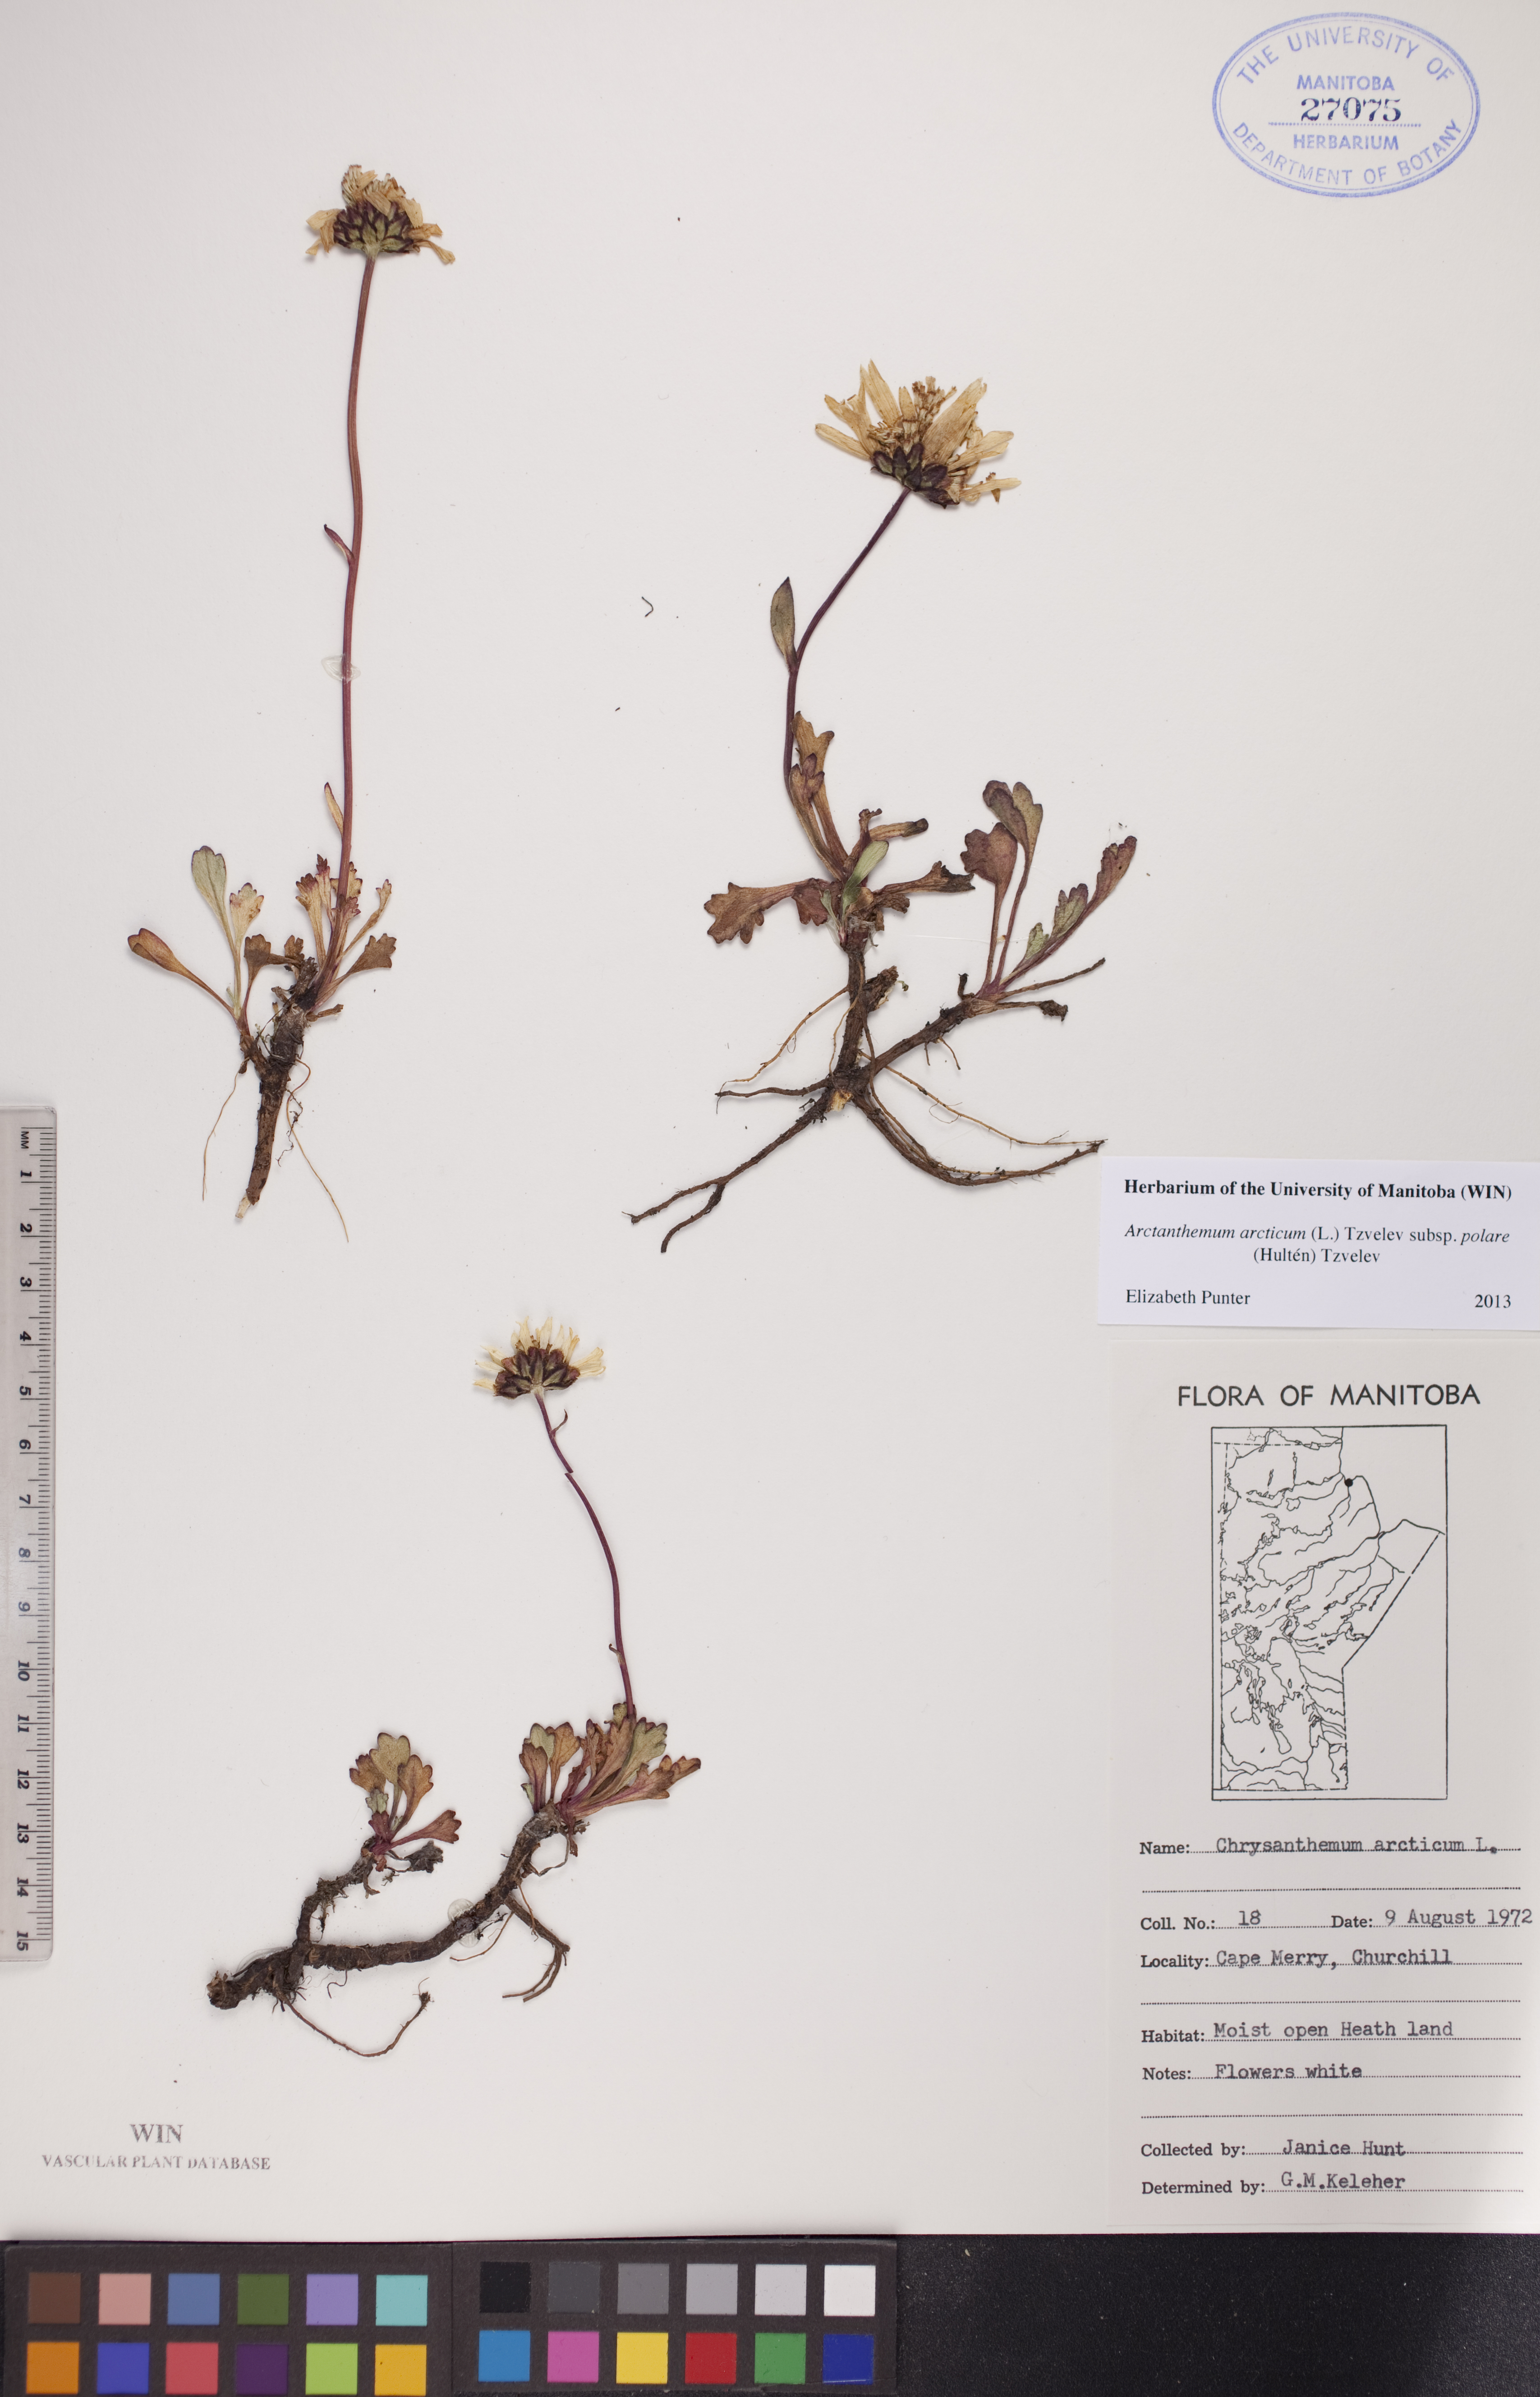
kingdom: Plantae
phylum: Tracheophyta
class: Magnoliopsida
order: Asterales
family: Asteraceae
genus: Arctanthemum
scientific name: Arctanthemum arcticum
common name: Arctic daisy
